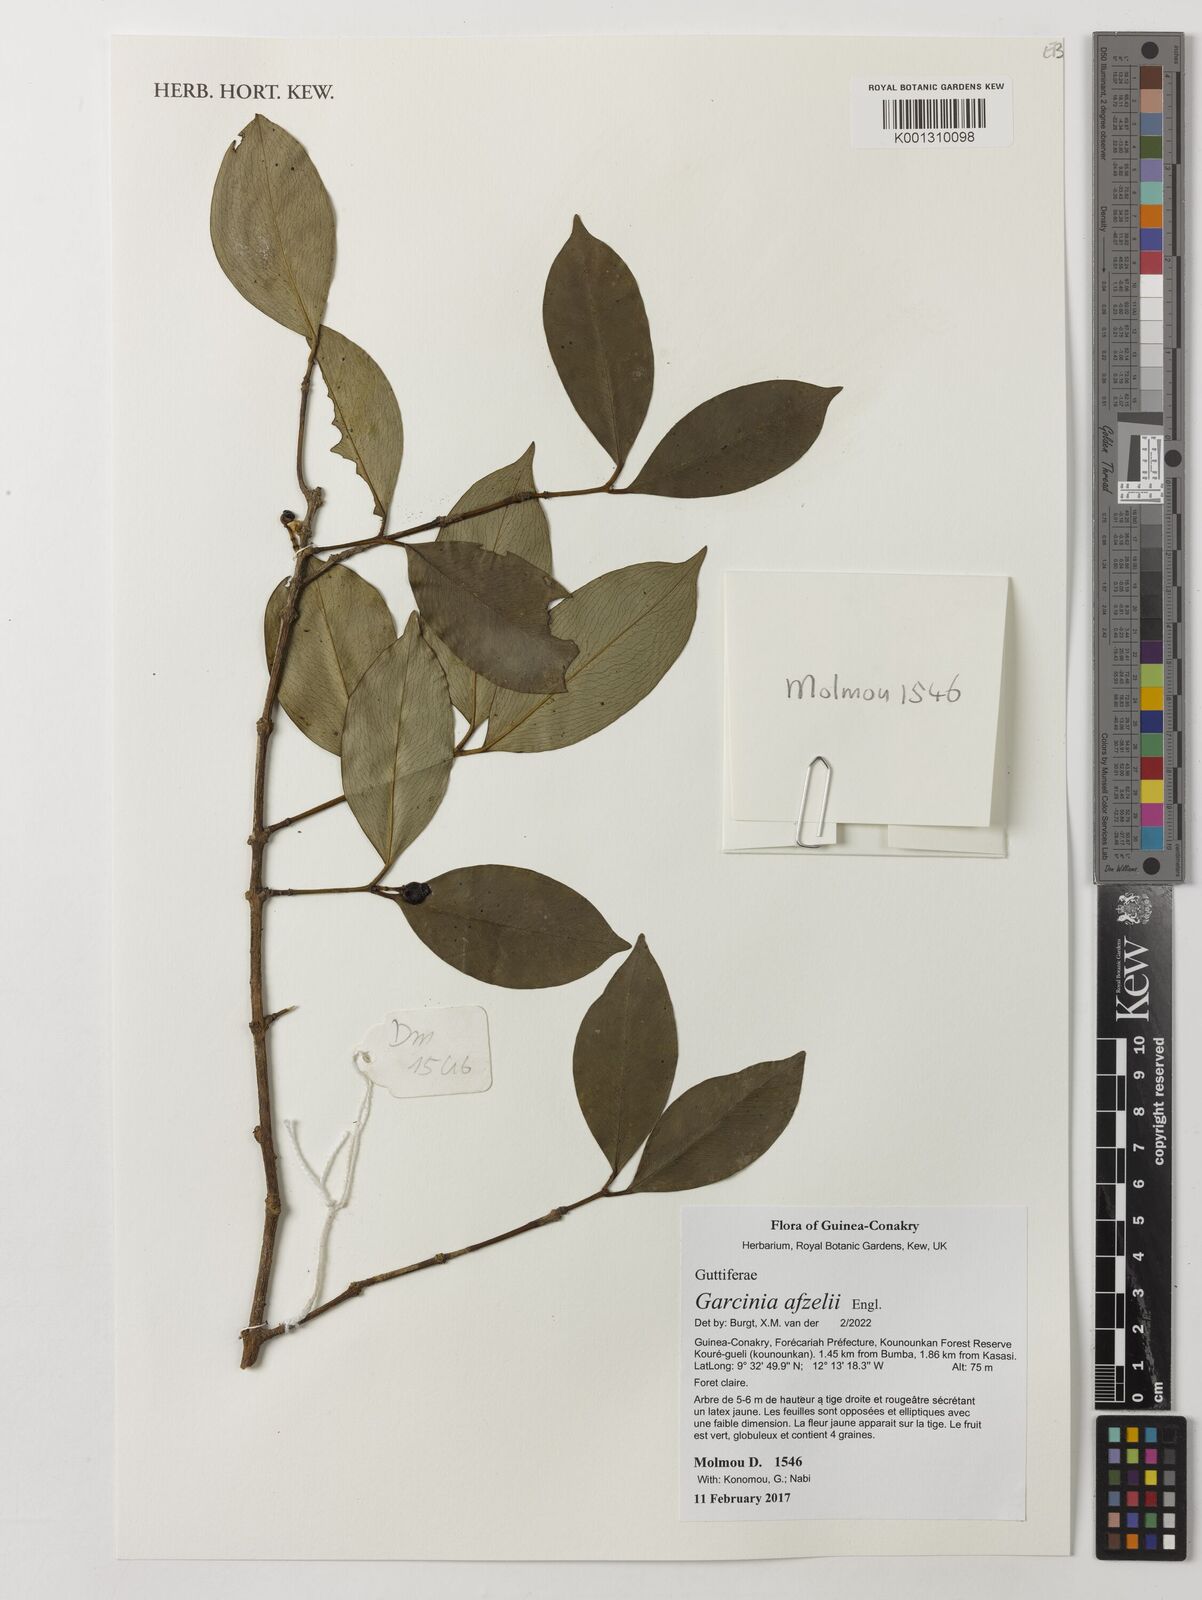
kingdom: Plantae
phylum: Tracheophyta
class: Magnoliopsida
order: Malpighiales
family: Clusiaceae
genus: Garcinia
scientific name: Garcinia afzelii
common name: Bitter-kola
